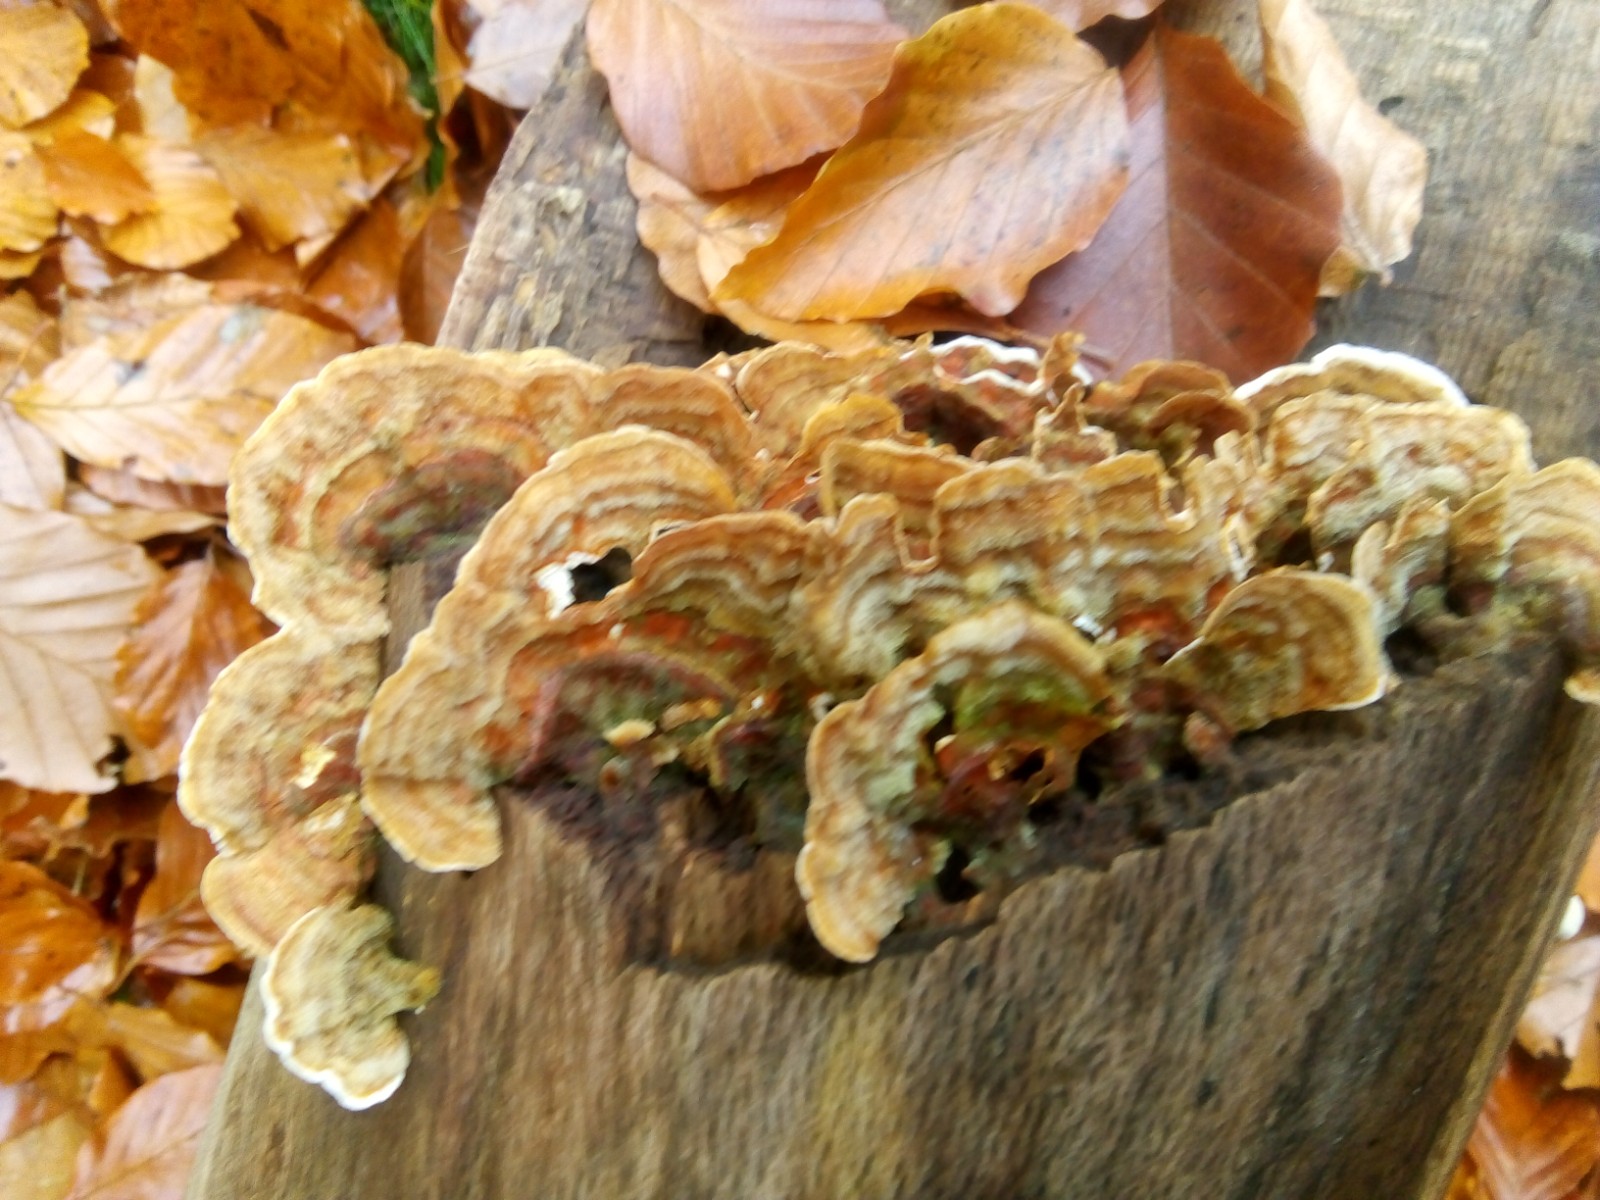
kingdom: Fungi
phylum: Basidiomycota
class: Agaricomycetes
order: Russulales
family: Stereaceae
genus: Stereum
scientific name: Stereum subtomentosum
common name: smuk lædersvamp
